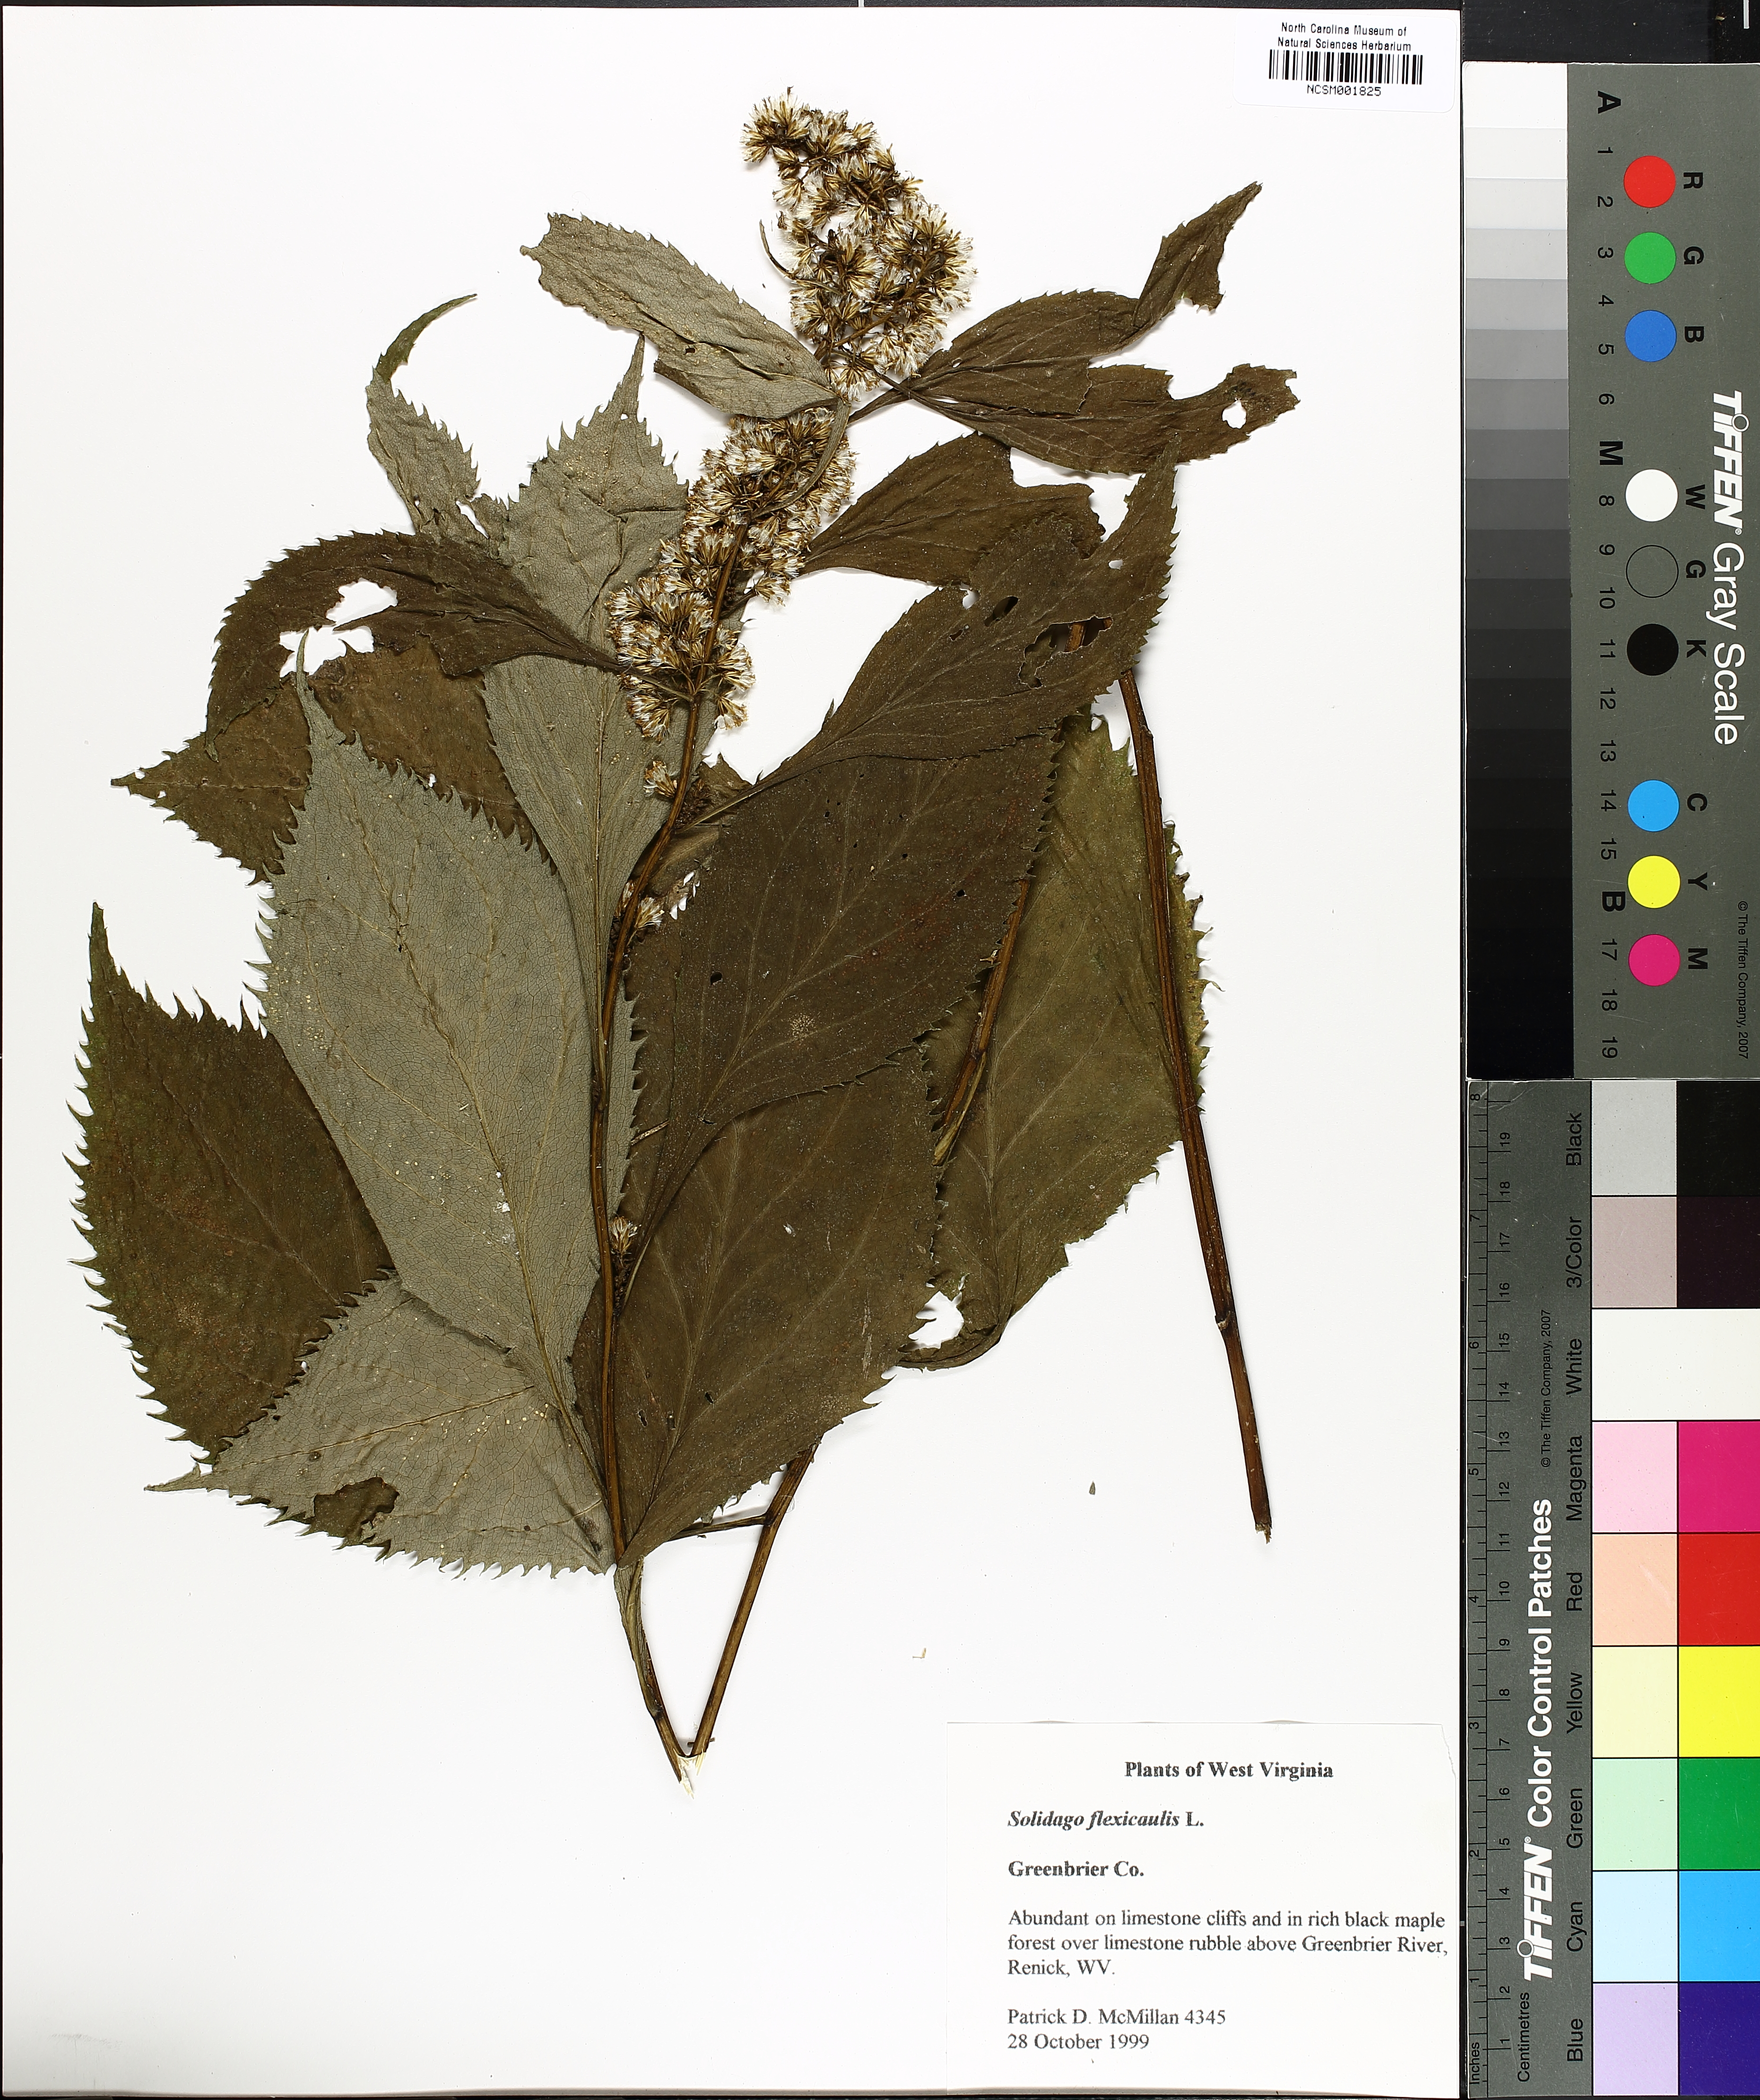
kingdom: Plantae
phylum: Tracheophyta
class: Magnoliopsida
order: Asterales
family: Asteraceae
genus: Solidago
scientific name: Solidago flexicaulis
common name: Zig-zag goldenrod
